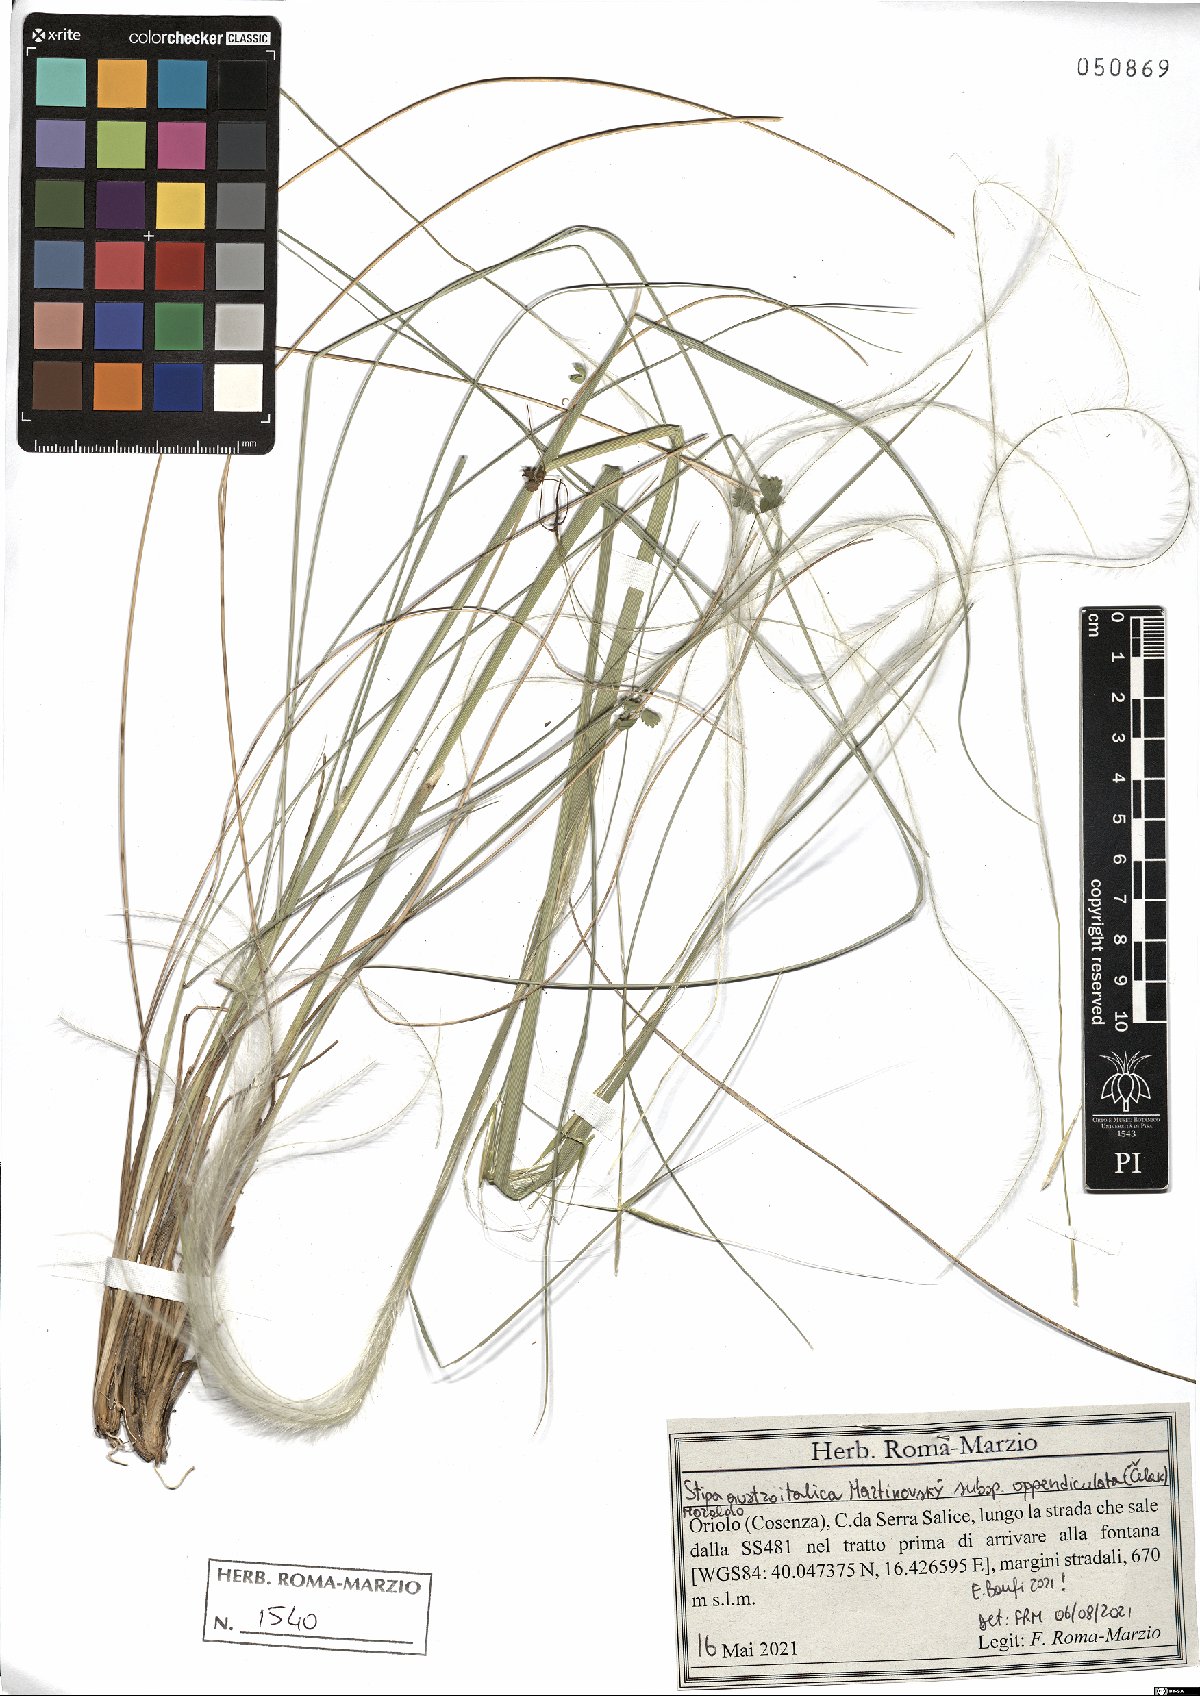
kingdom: Plantae
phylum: Tracheophyta
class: Liliopsida
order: Poales
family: Poaceae
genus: Stipa
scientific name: Stipa pennata
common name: European feather grass
